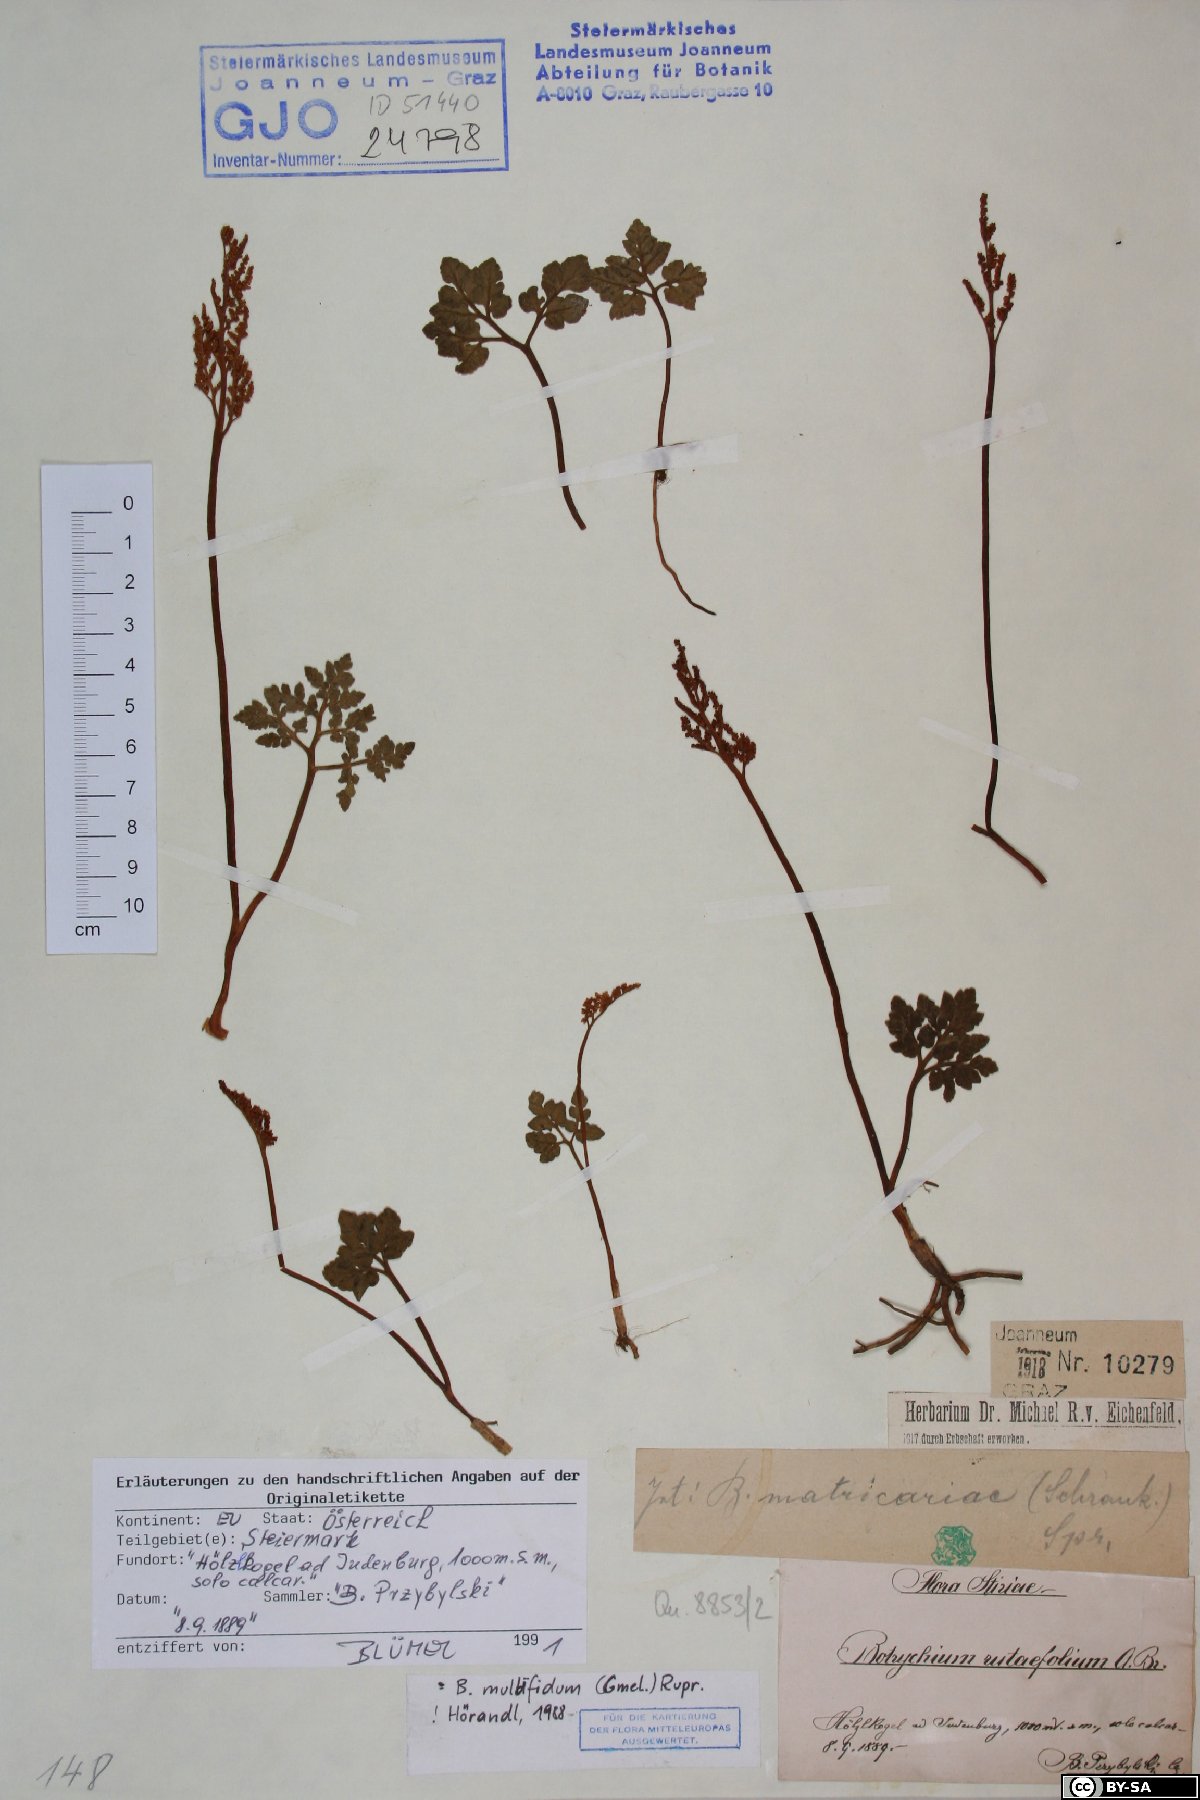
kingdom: Plantae
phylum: Tracheophyta
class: Polypodiopsida
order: Ophioglossales
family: Ophioglossaceae
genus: Sceptridium
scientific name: Sceptridium multifidum
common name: Leathery grape fern
